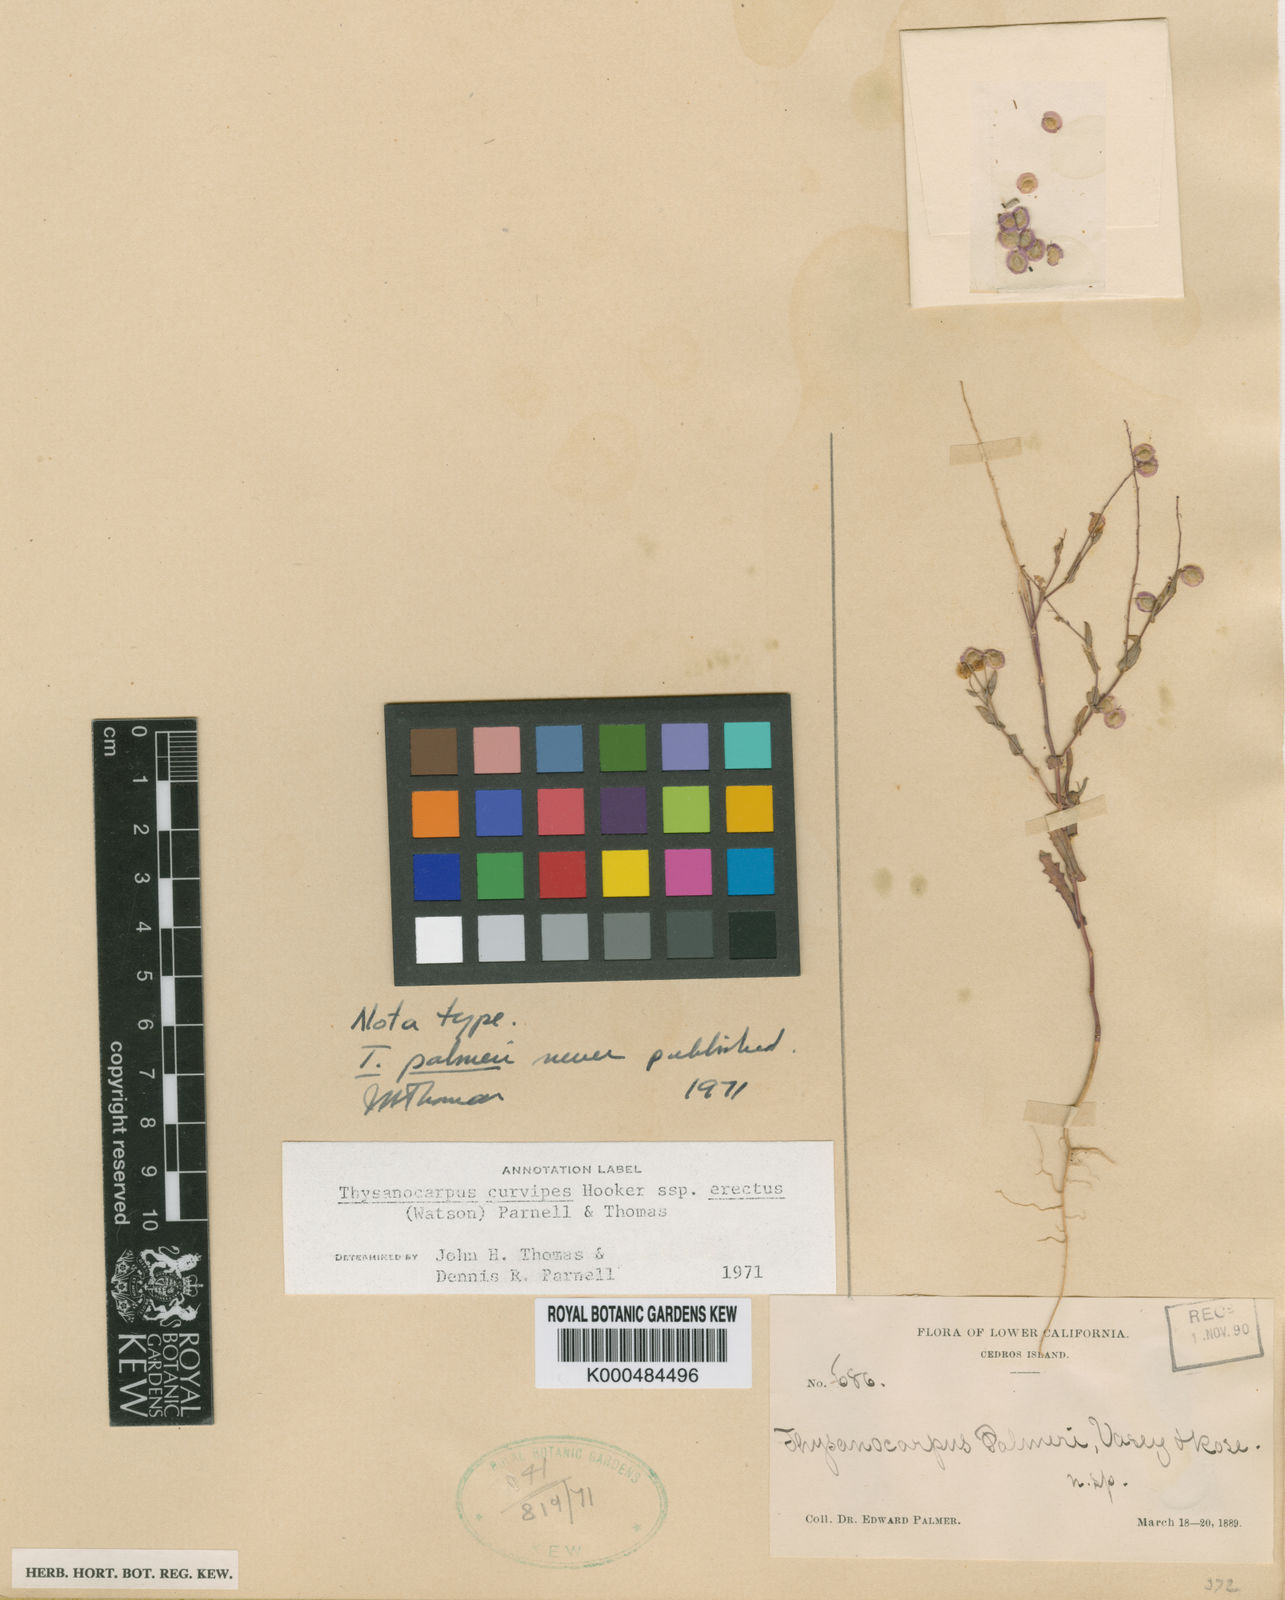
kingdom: Plantae
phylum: Tracheophyta
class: Magnoliopsida
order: Brassicales
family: Brassicaceae
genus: Thysanocarpus
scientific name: Thysanocarpus curvipes
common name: Sand fringepod
